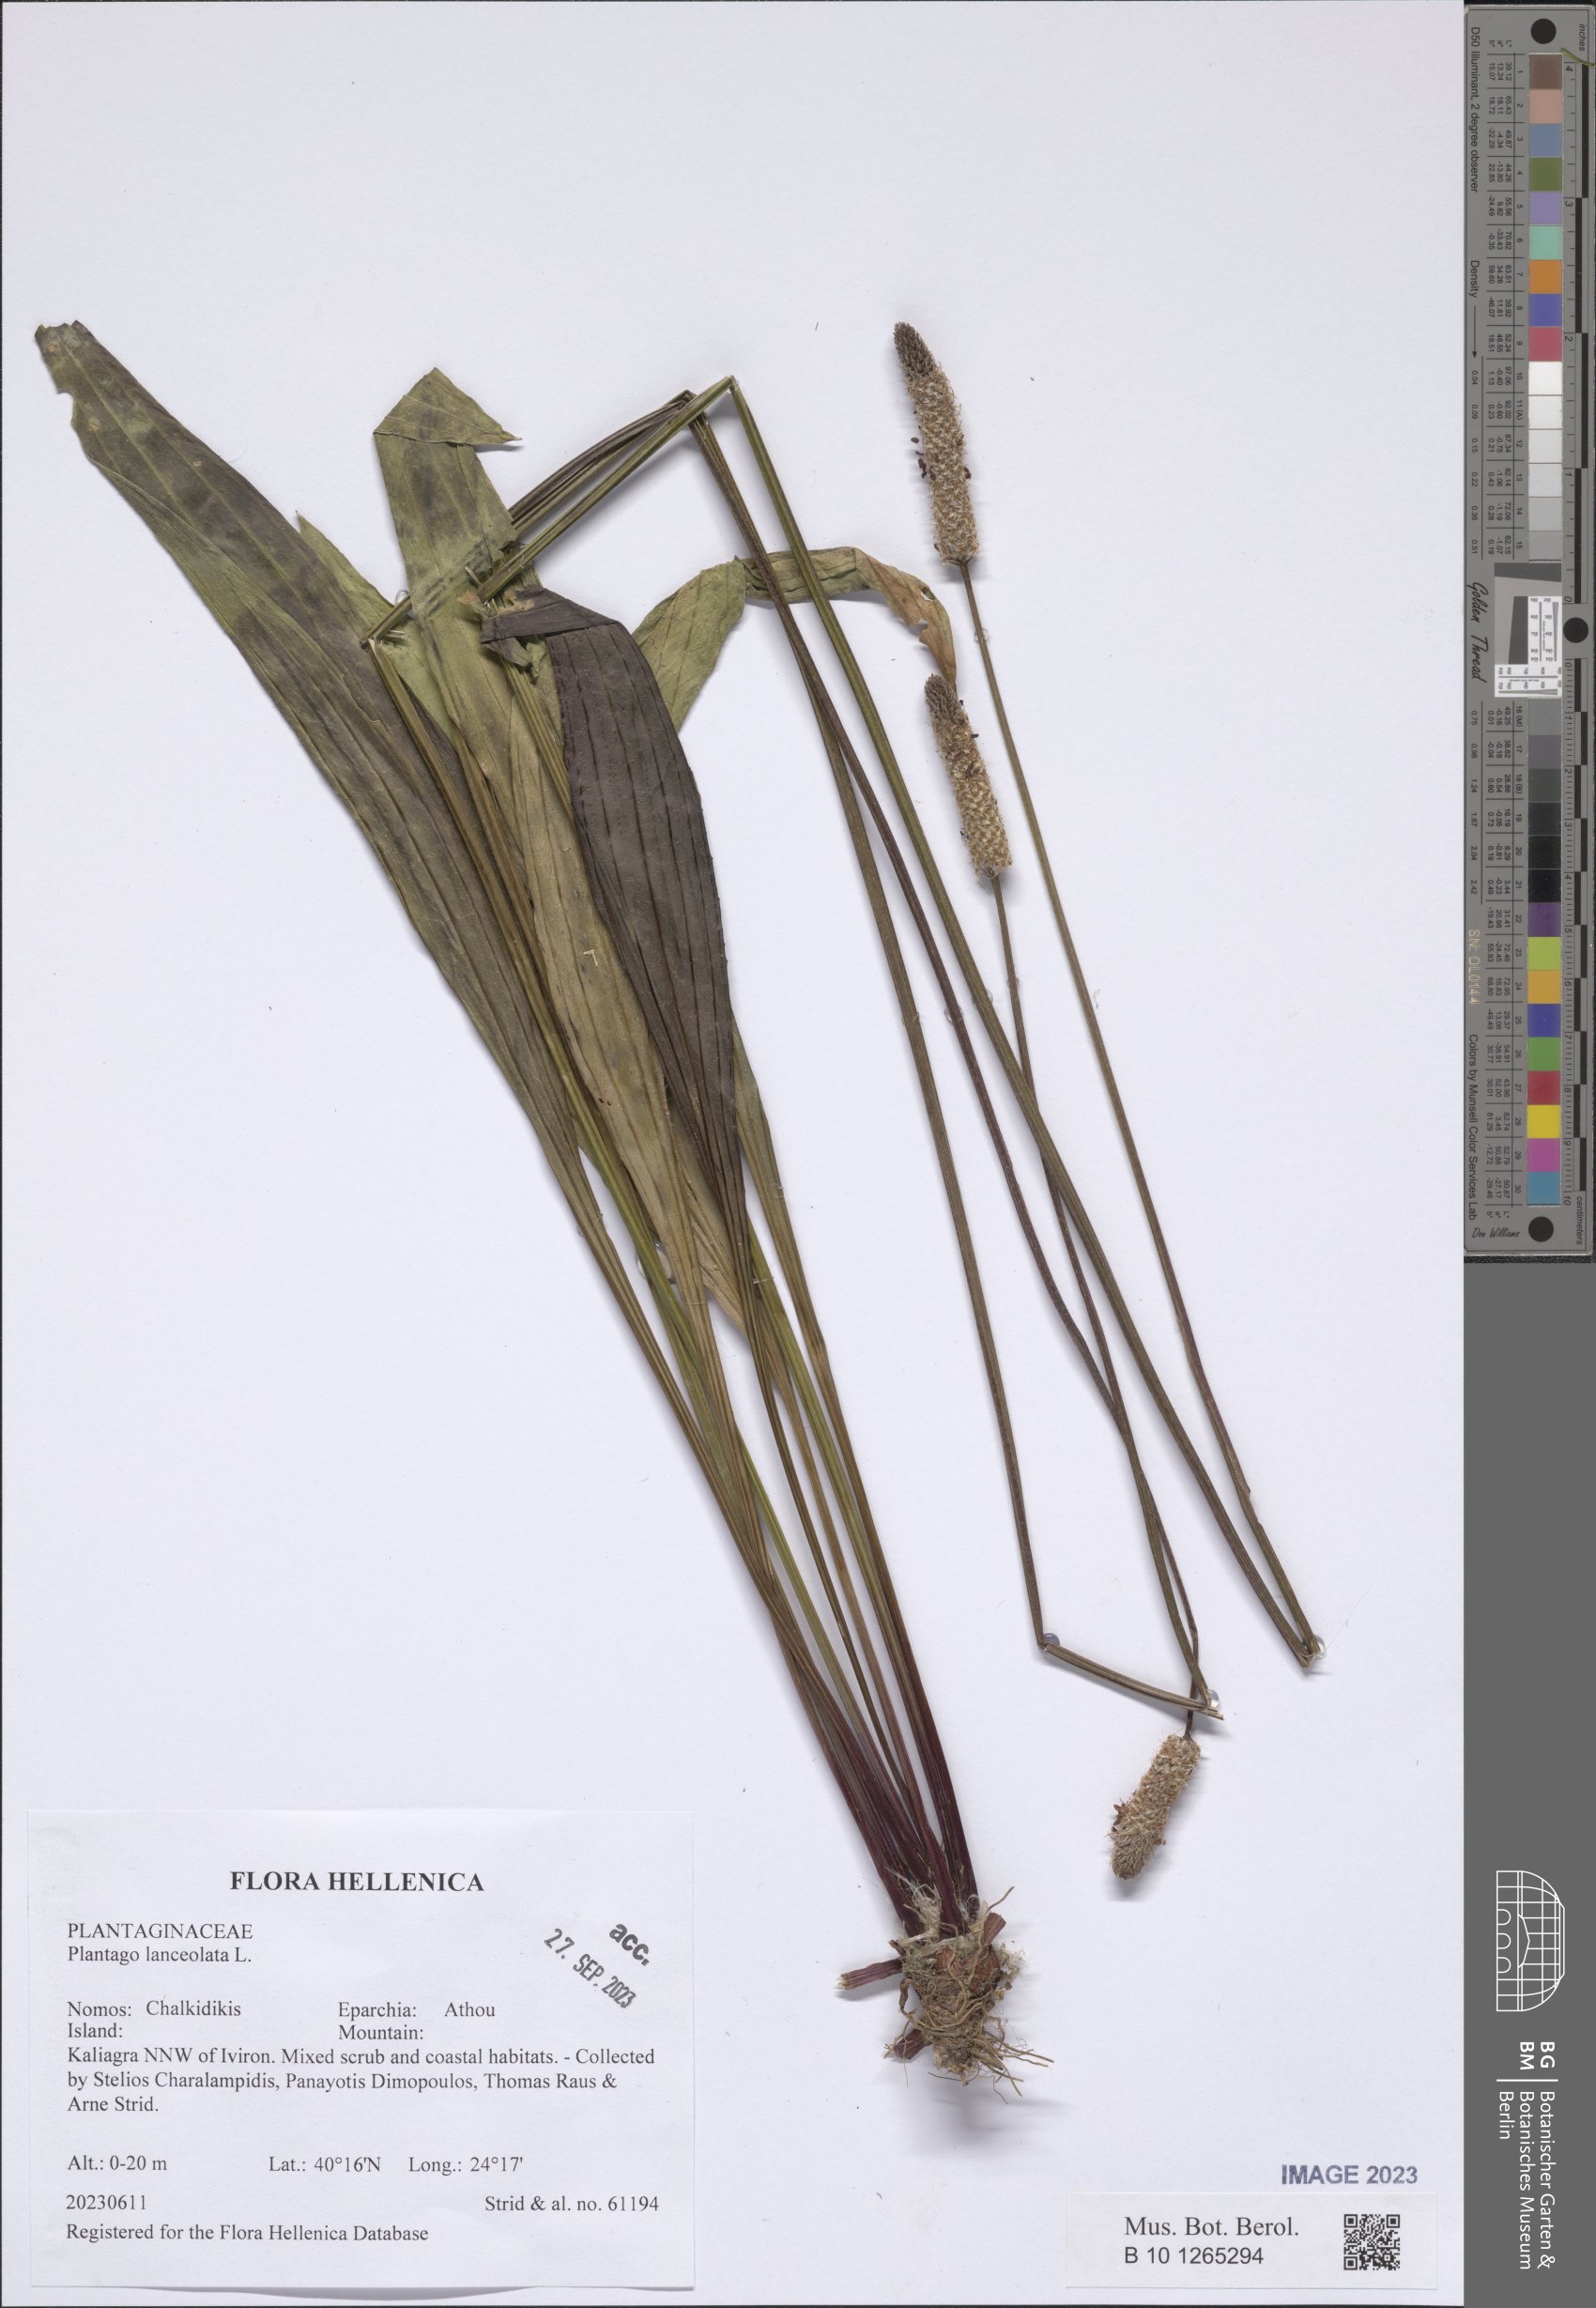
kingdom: Plantae
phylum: Tracheophyta
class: Magnoliopsida
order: Lamiales
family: Plantaginaceae
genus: Plantago
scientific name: Plantago lanceolata
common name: Ribwort plantain
